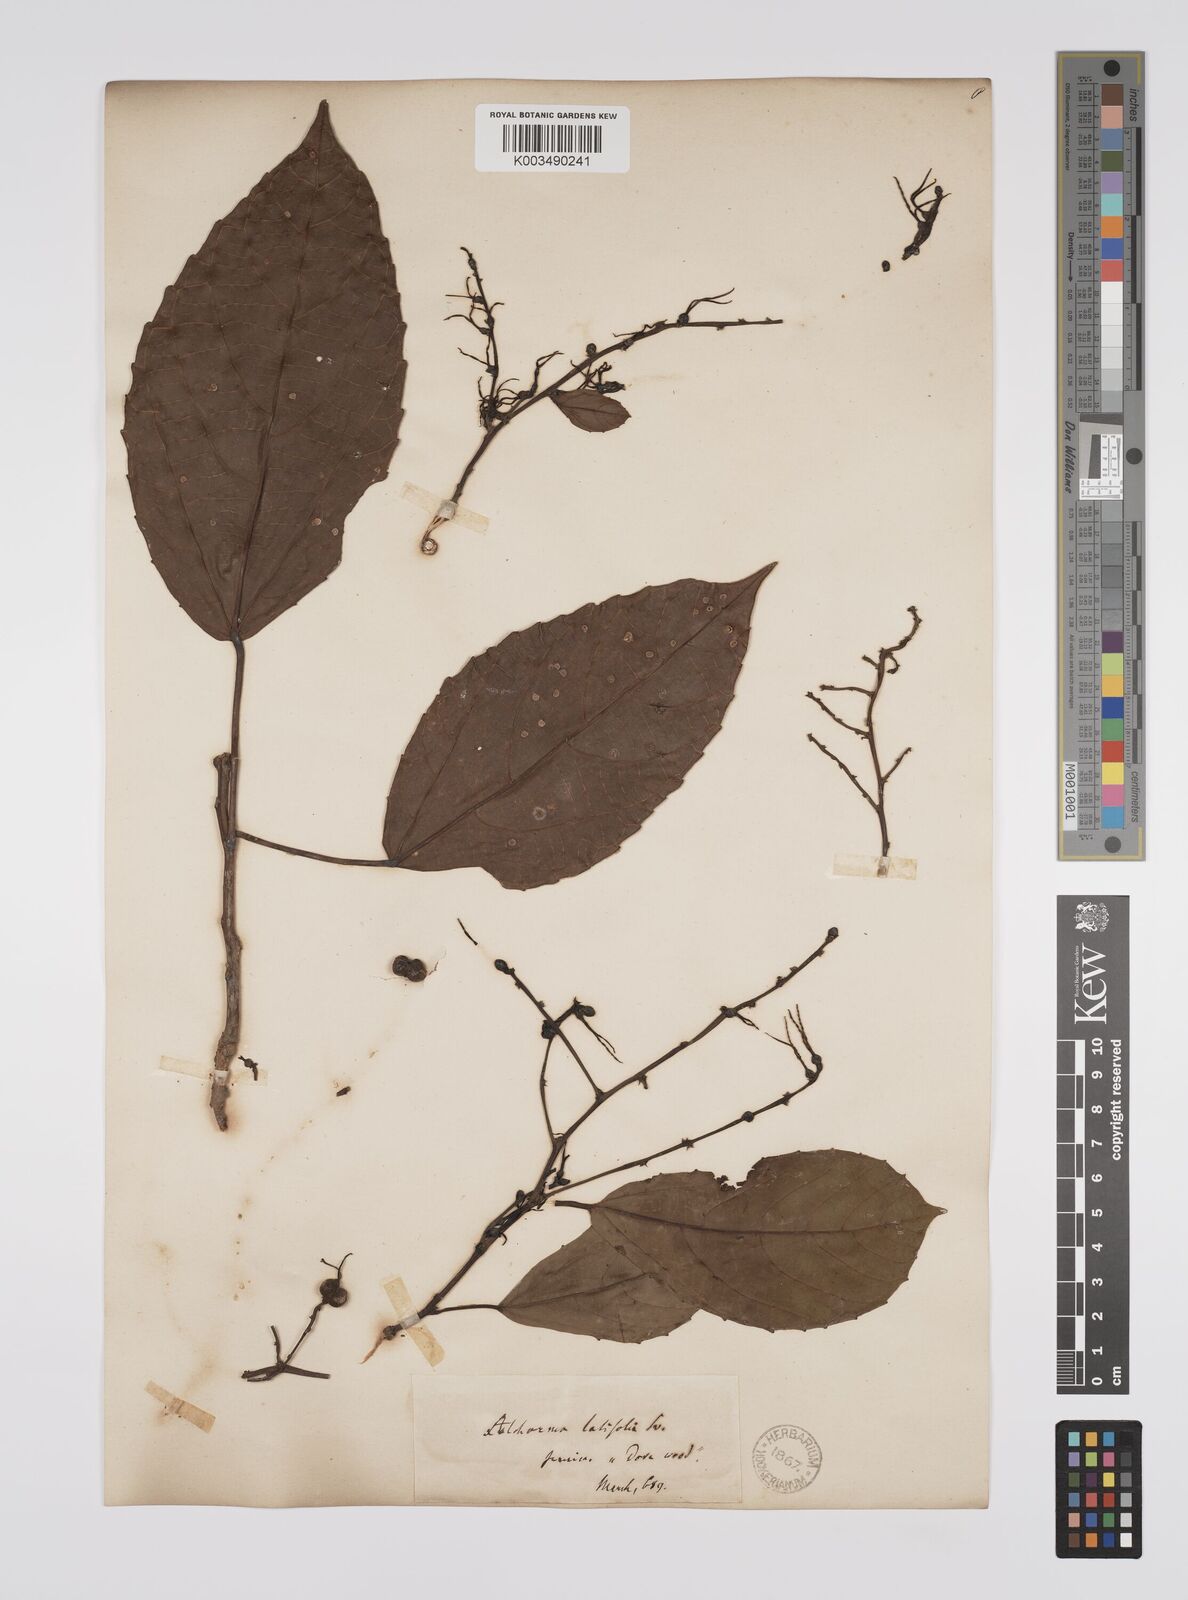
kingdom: Plantae
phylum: Tracheophyta
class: Magnoliopsida
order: Malpighiales
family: Euphorbiaceae
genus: Alchornea
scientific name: Alchornea latifolia
